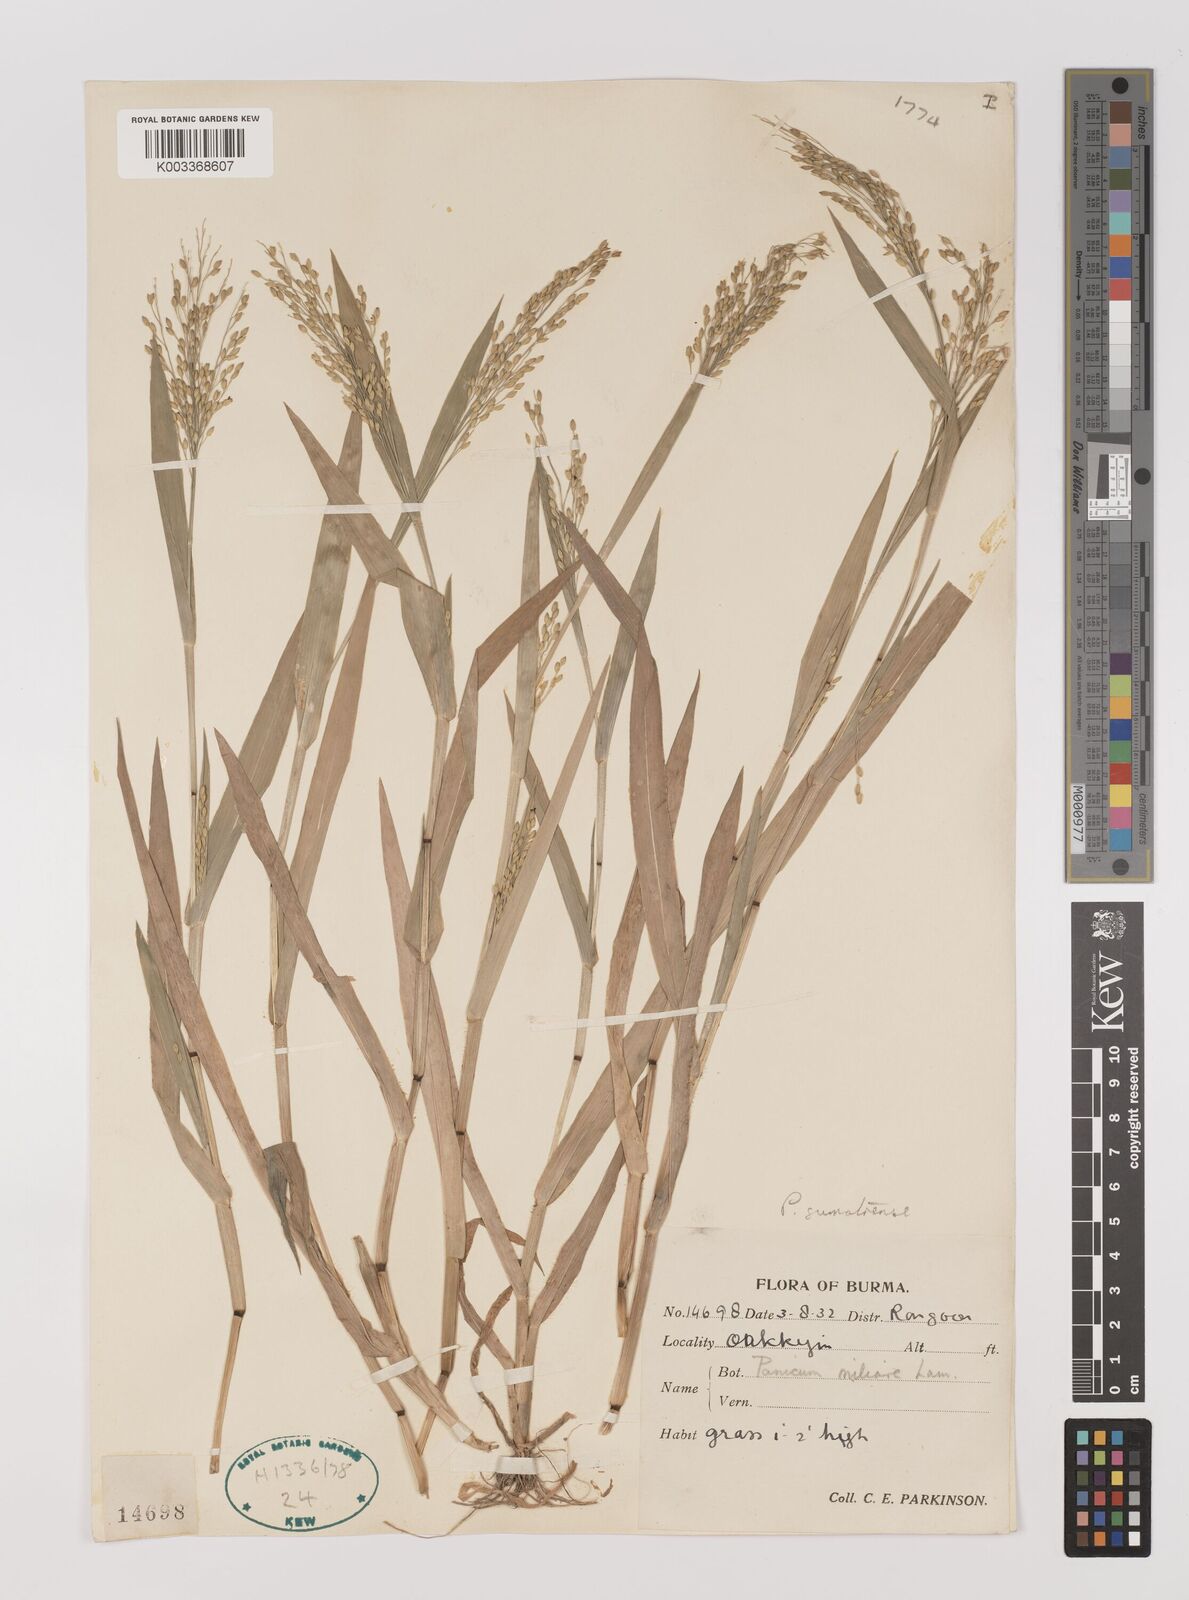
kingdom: Plantae
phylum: Tracheophyta
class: Liliopsida
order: Poales
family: Poaceae
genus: Panicum
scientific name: Panicum sumatrense
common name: Little millet
